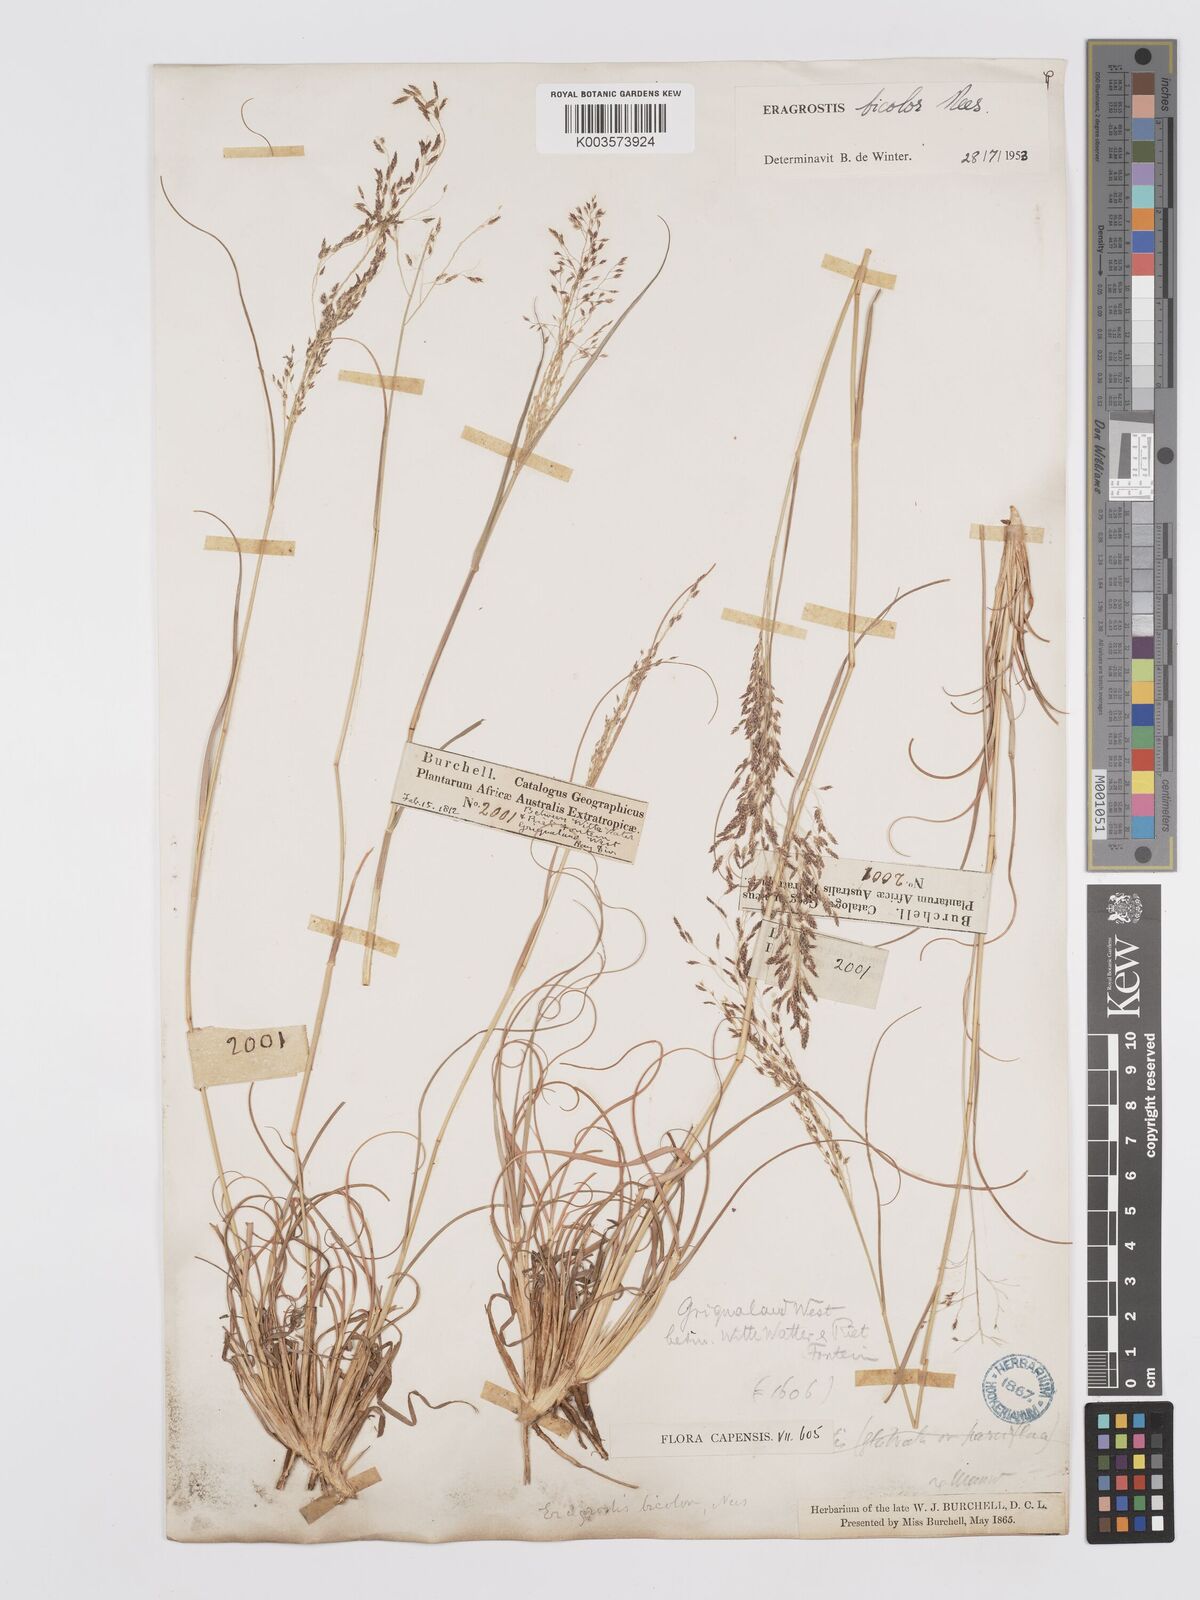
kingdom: Plantae
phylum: Tracheophyta
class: Liliopsida
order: Poales
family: Poaceae
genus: Eragrostis
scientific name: Eragrostis
